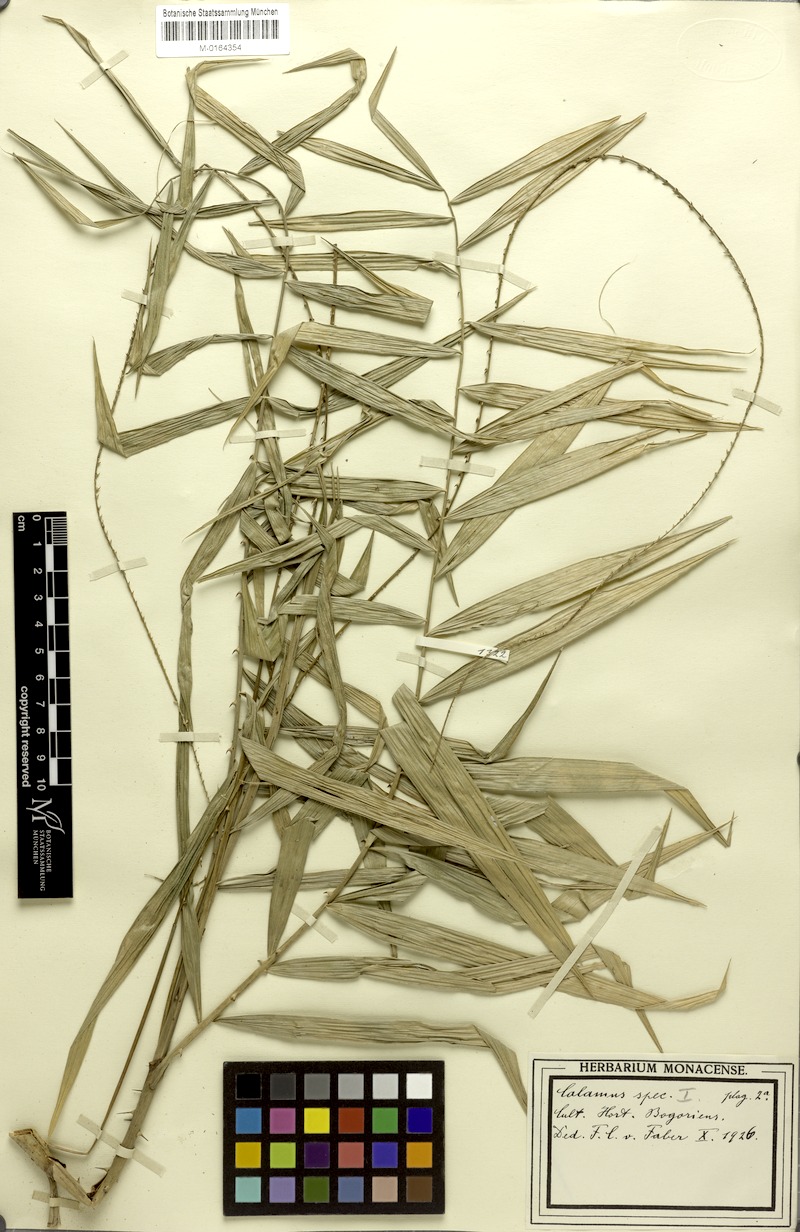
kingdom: Plantae
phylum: Tracheophyta
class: Liliopsida
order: Arecales
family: Arecaceae
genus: Calamus
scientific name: Calamus
